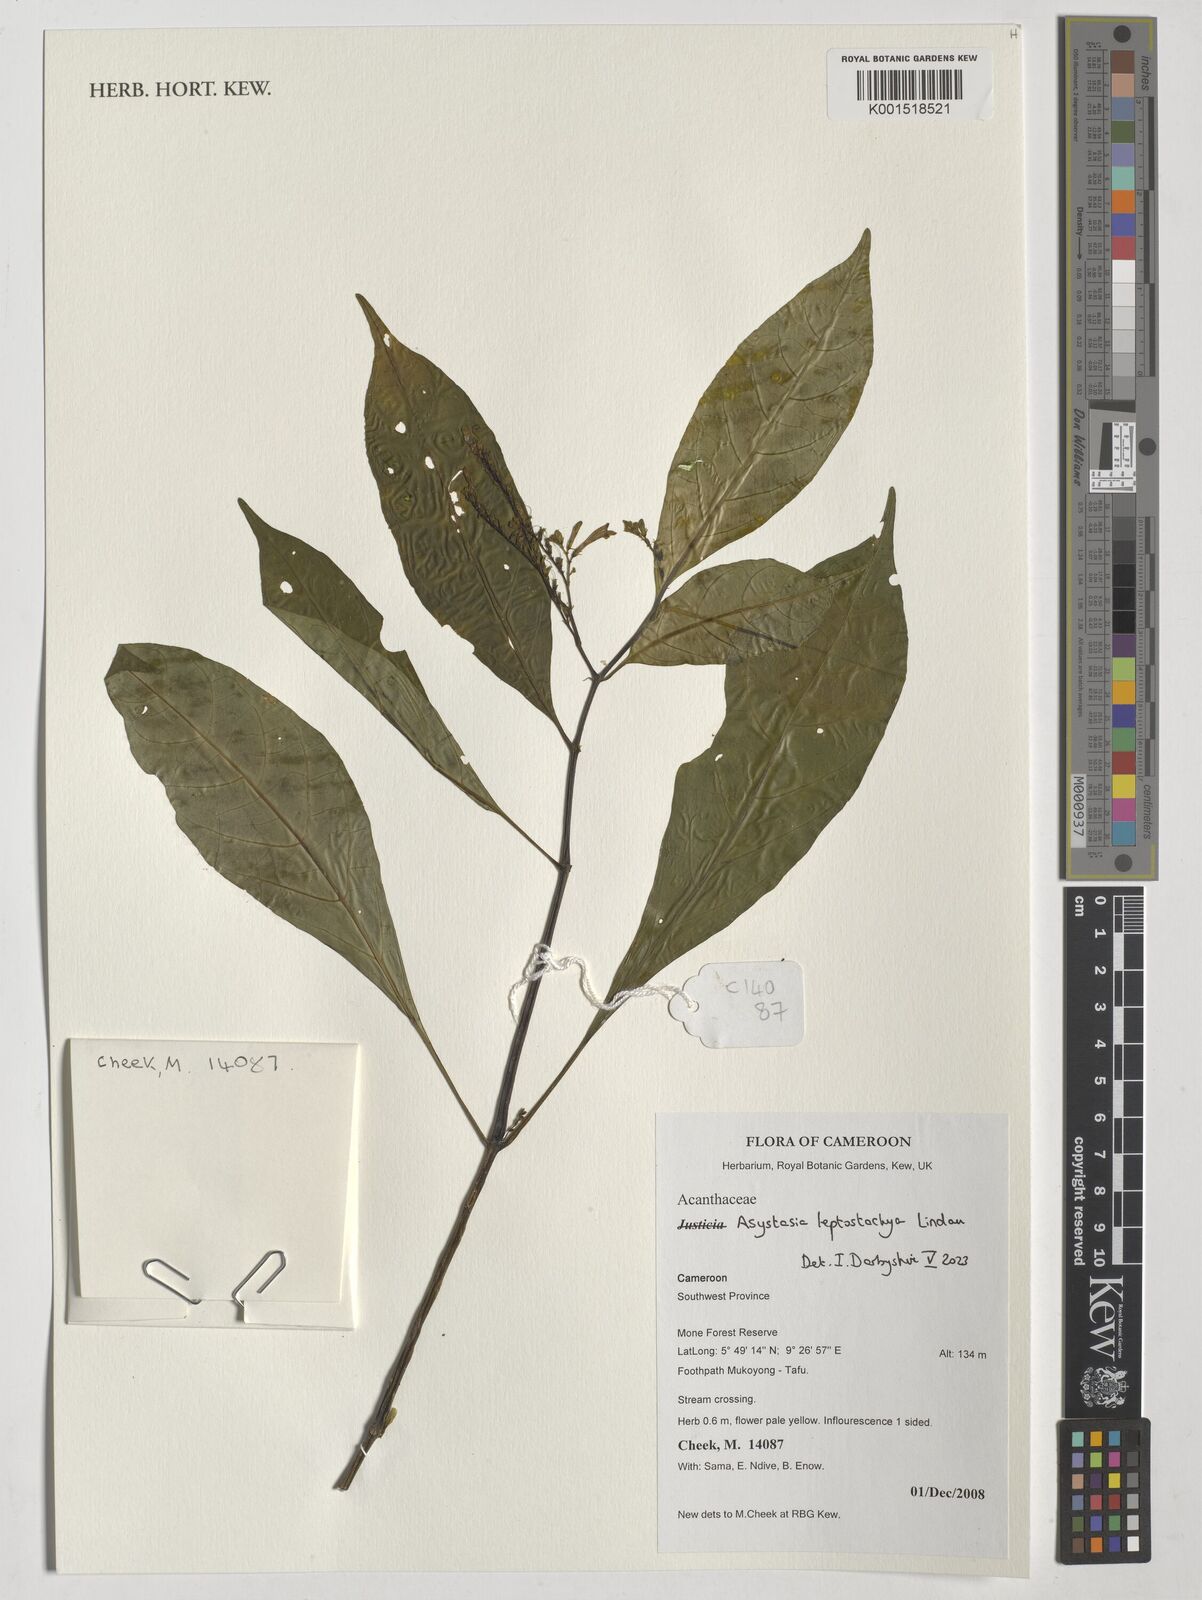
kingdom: Plantae
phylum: Tracheophyta
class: Magnoliopsida
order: Lamiales
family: Acanthaceae
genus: Asystasia
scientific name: Asystasia leptostachya
